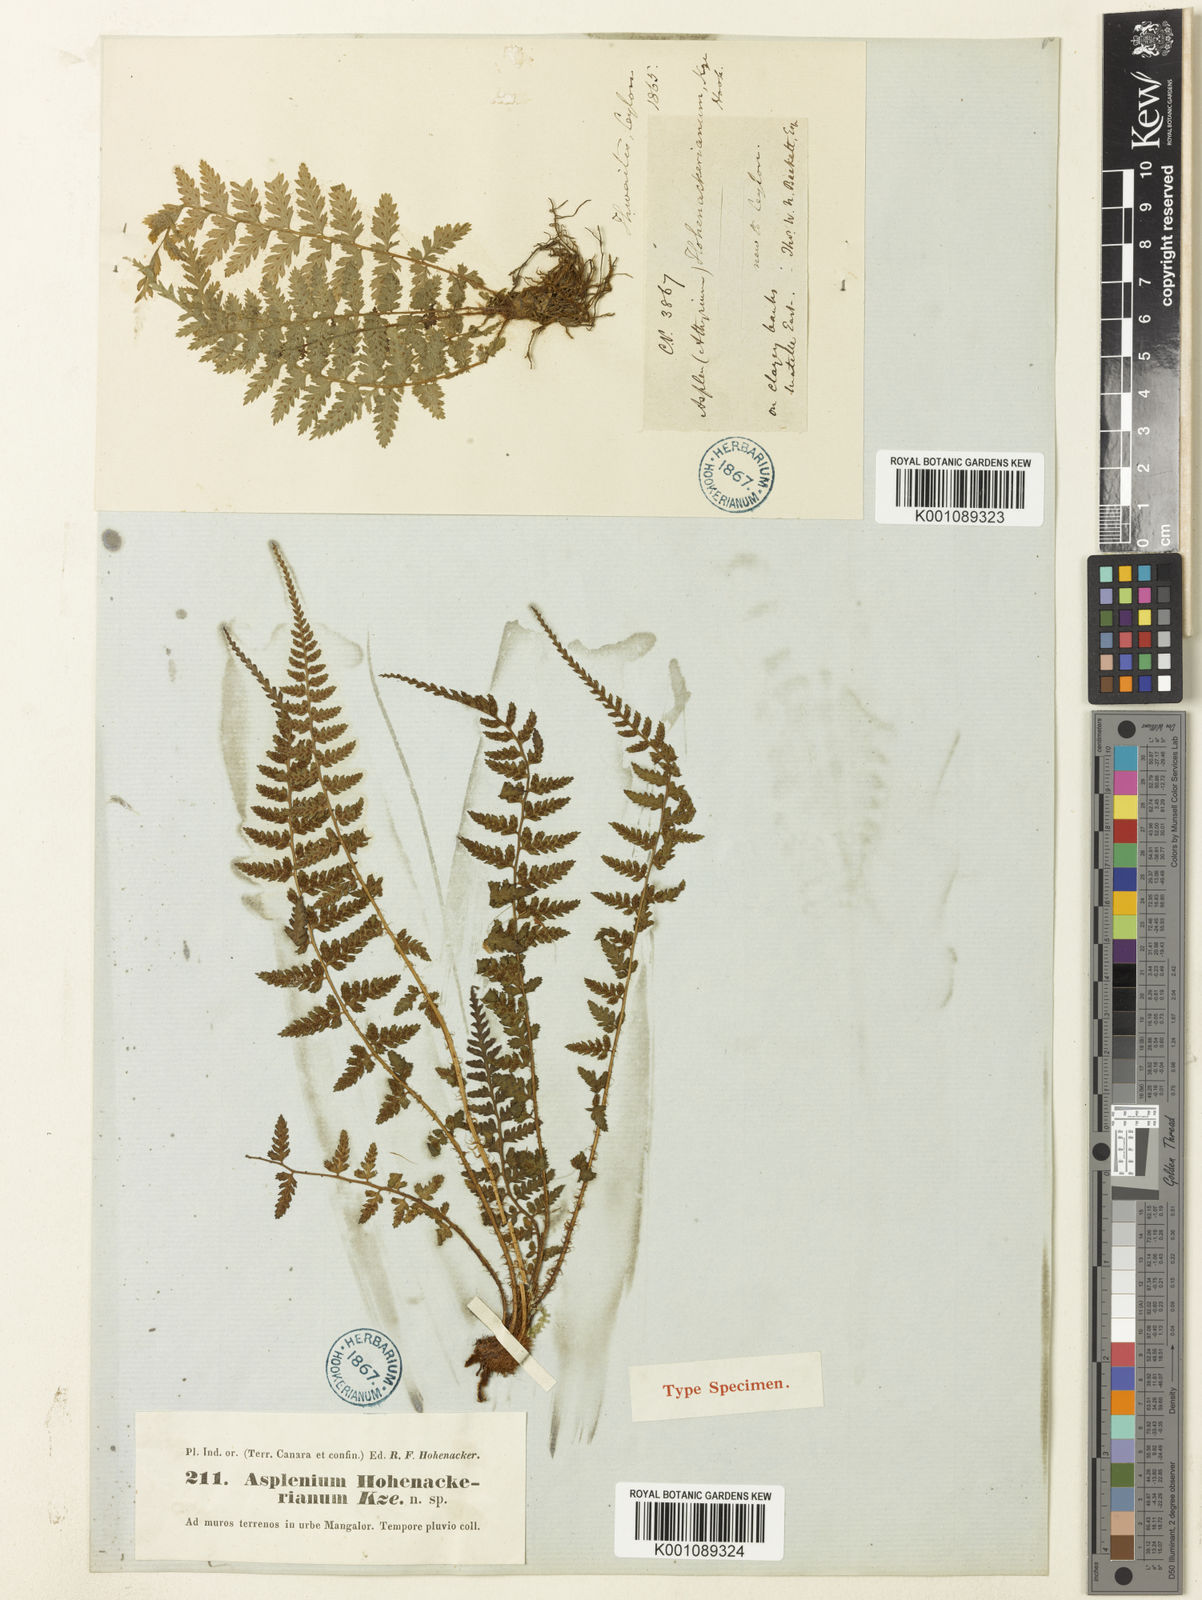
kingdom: Plantae
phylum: Tracheophyta
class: Polypodiopsida
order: Polypodiales
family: Athyriaceae
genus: Athyrium
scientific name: Athyrium hohenackerianum
